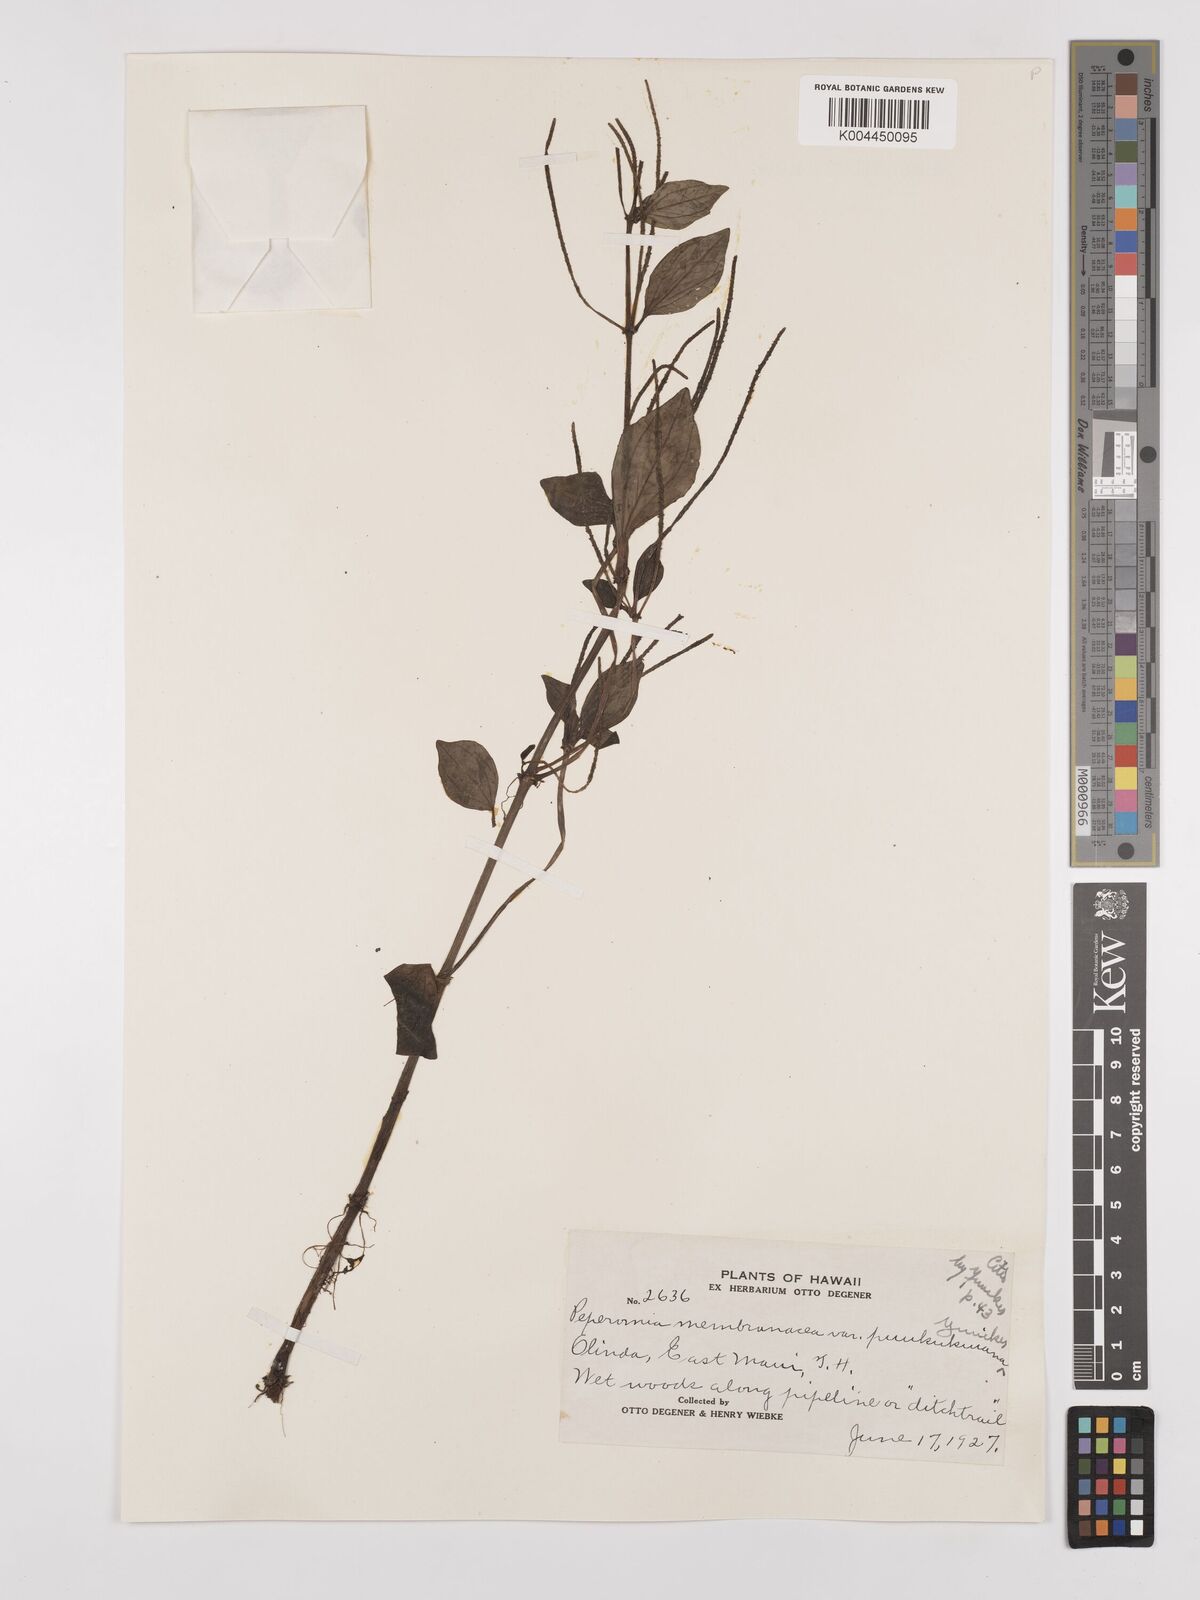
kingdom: Plantae
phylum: Tracheophyta
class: Magnoliopsida
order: Piperales
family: Piperaceae
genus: Peperomia
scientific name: Peperomia
